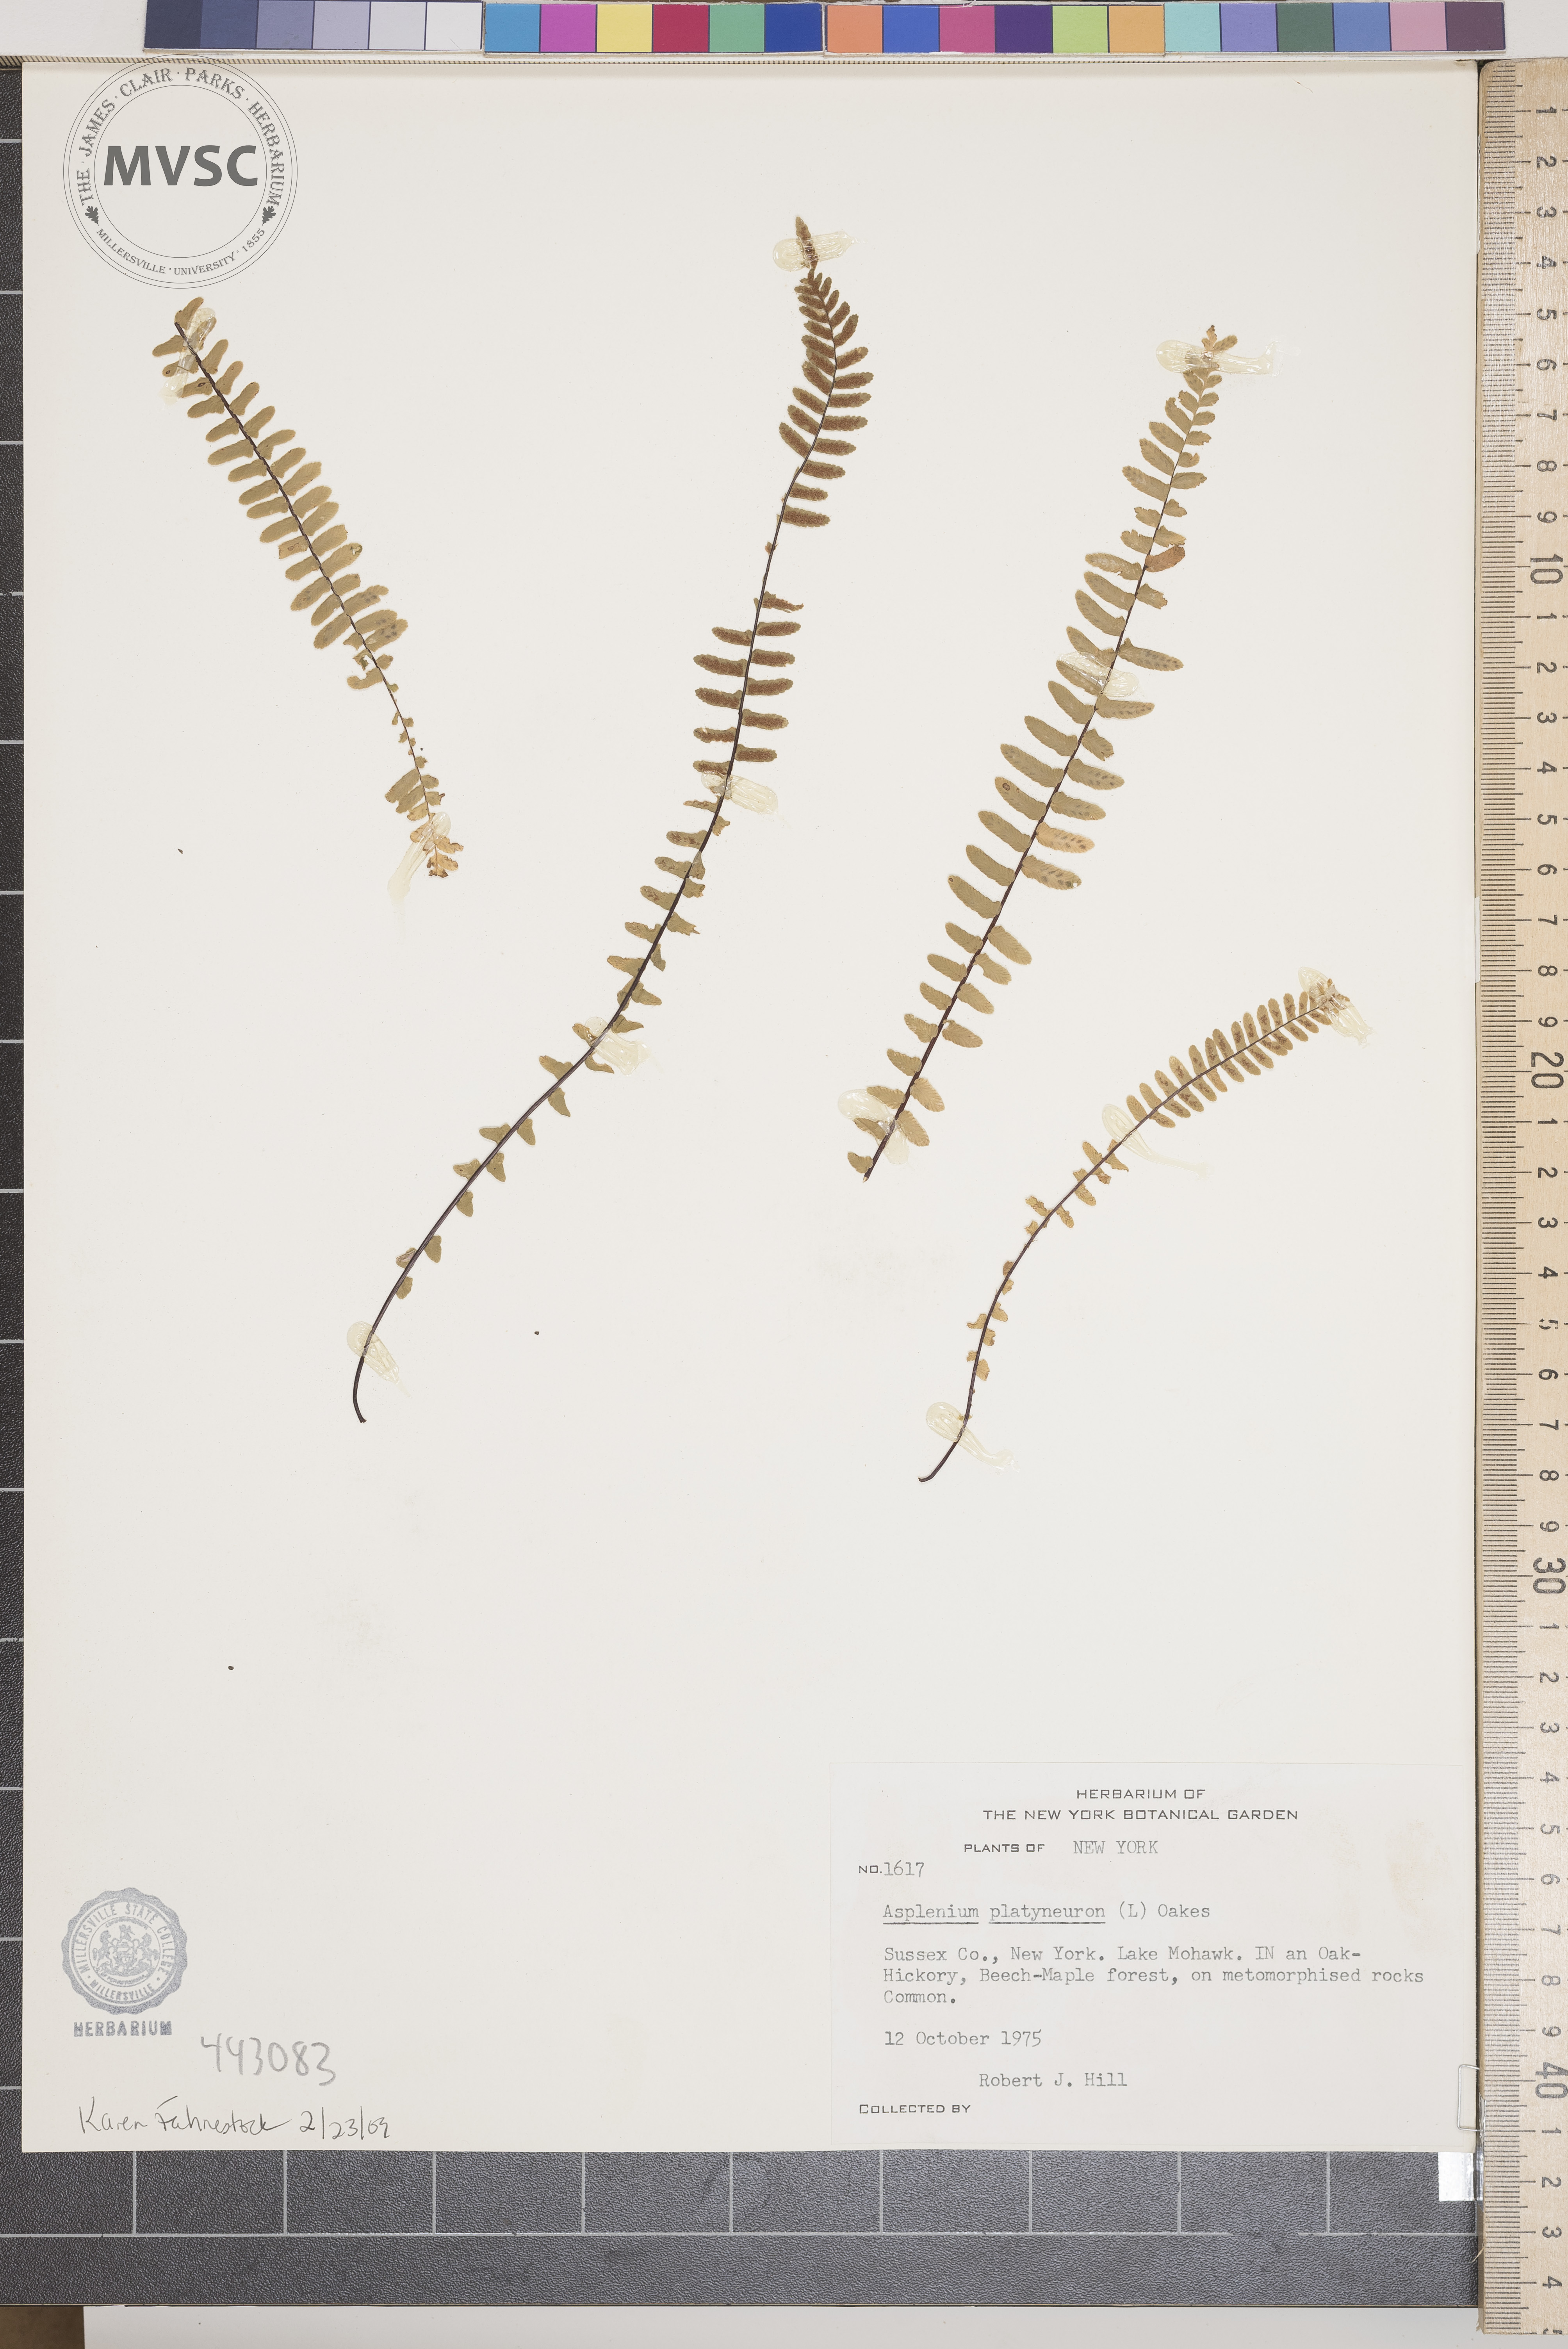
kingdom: Plantae
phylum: Tracheophyta
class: Polypodiopsida
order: Polypodiales
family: Aspleniaceae
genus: Asplenium
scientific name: Asplenium platyneuron
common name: Ebony spleenwort
